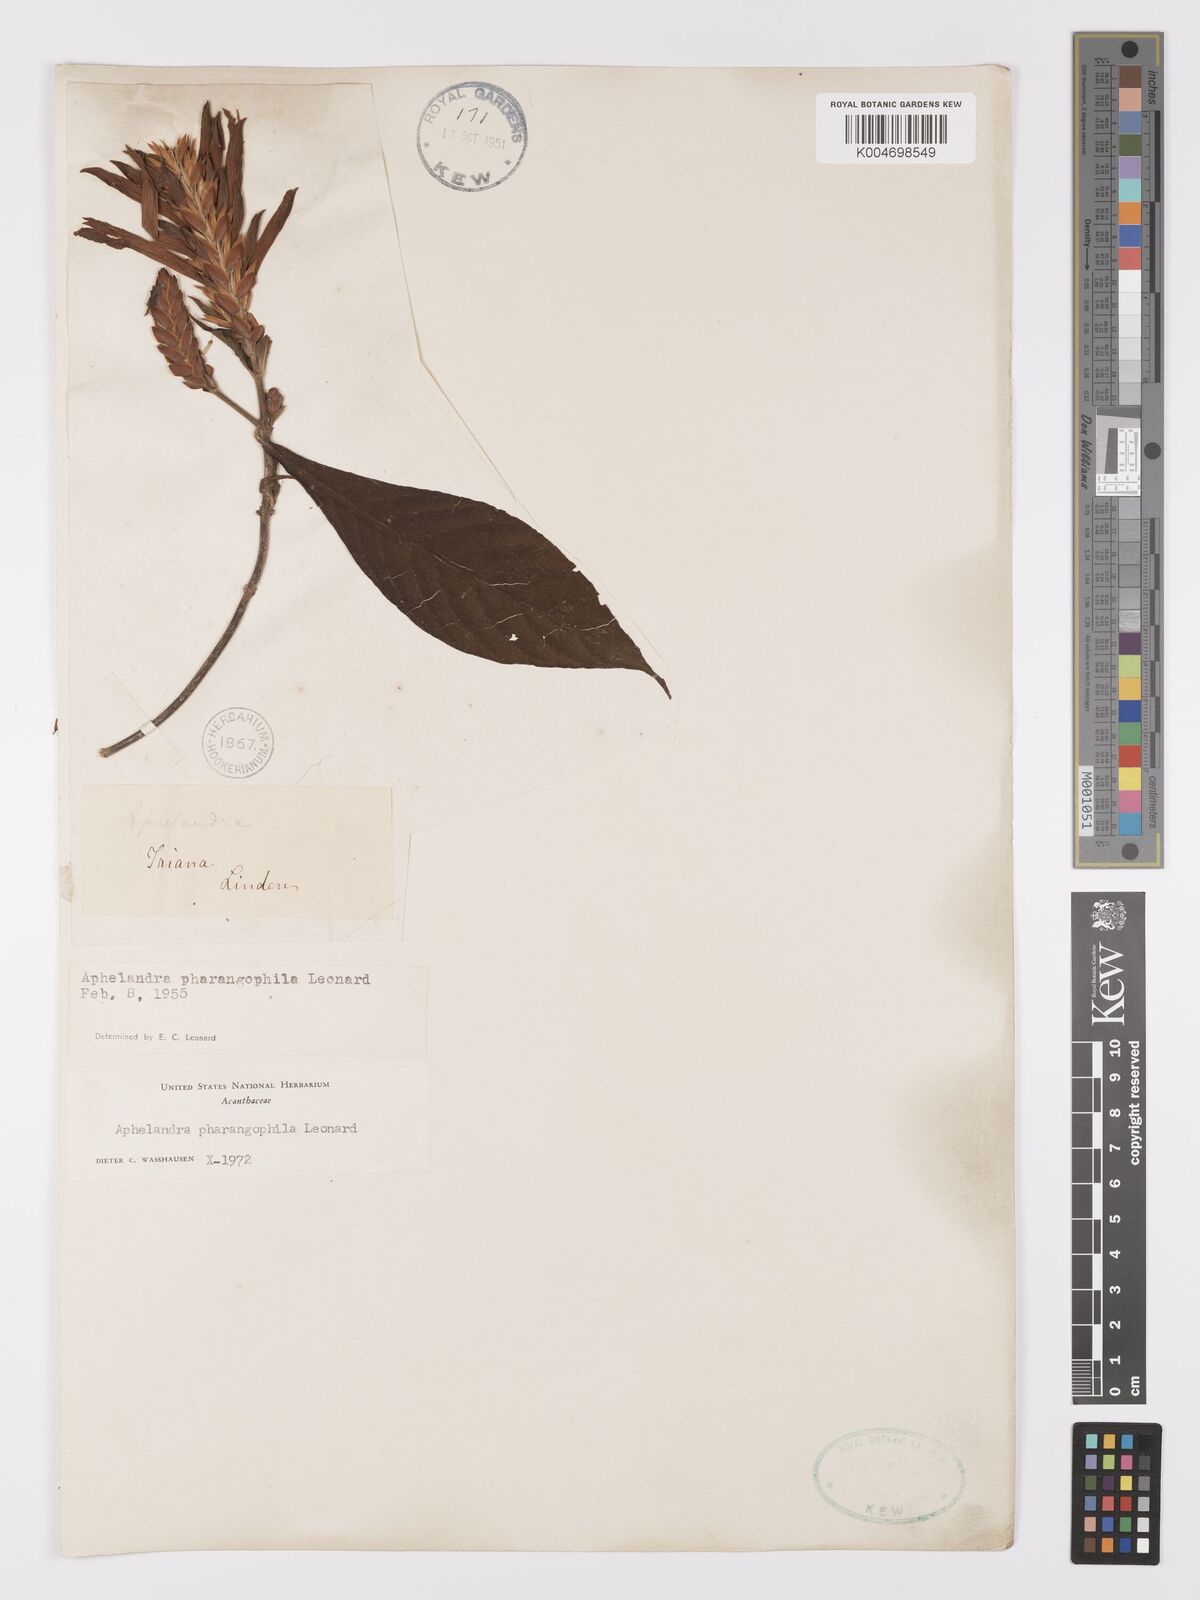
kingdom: Plantae
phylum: Tracheophyta
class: Magnoliopsida
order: Lamiales
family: Acanthaceae
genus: Aphelandra
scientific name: Aphelandra pharangophila
